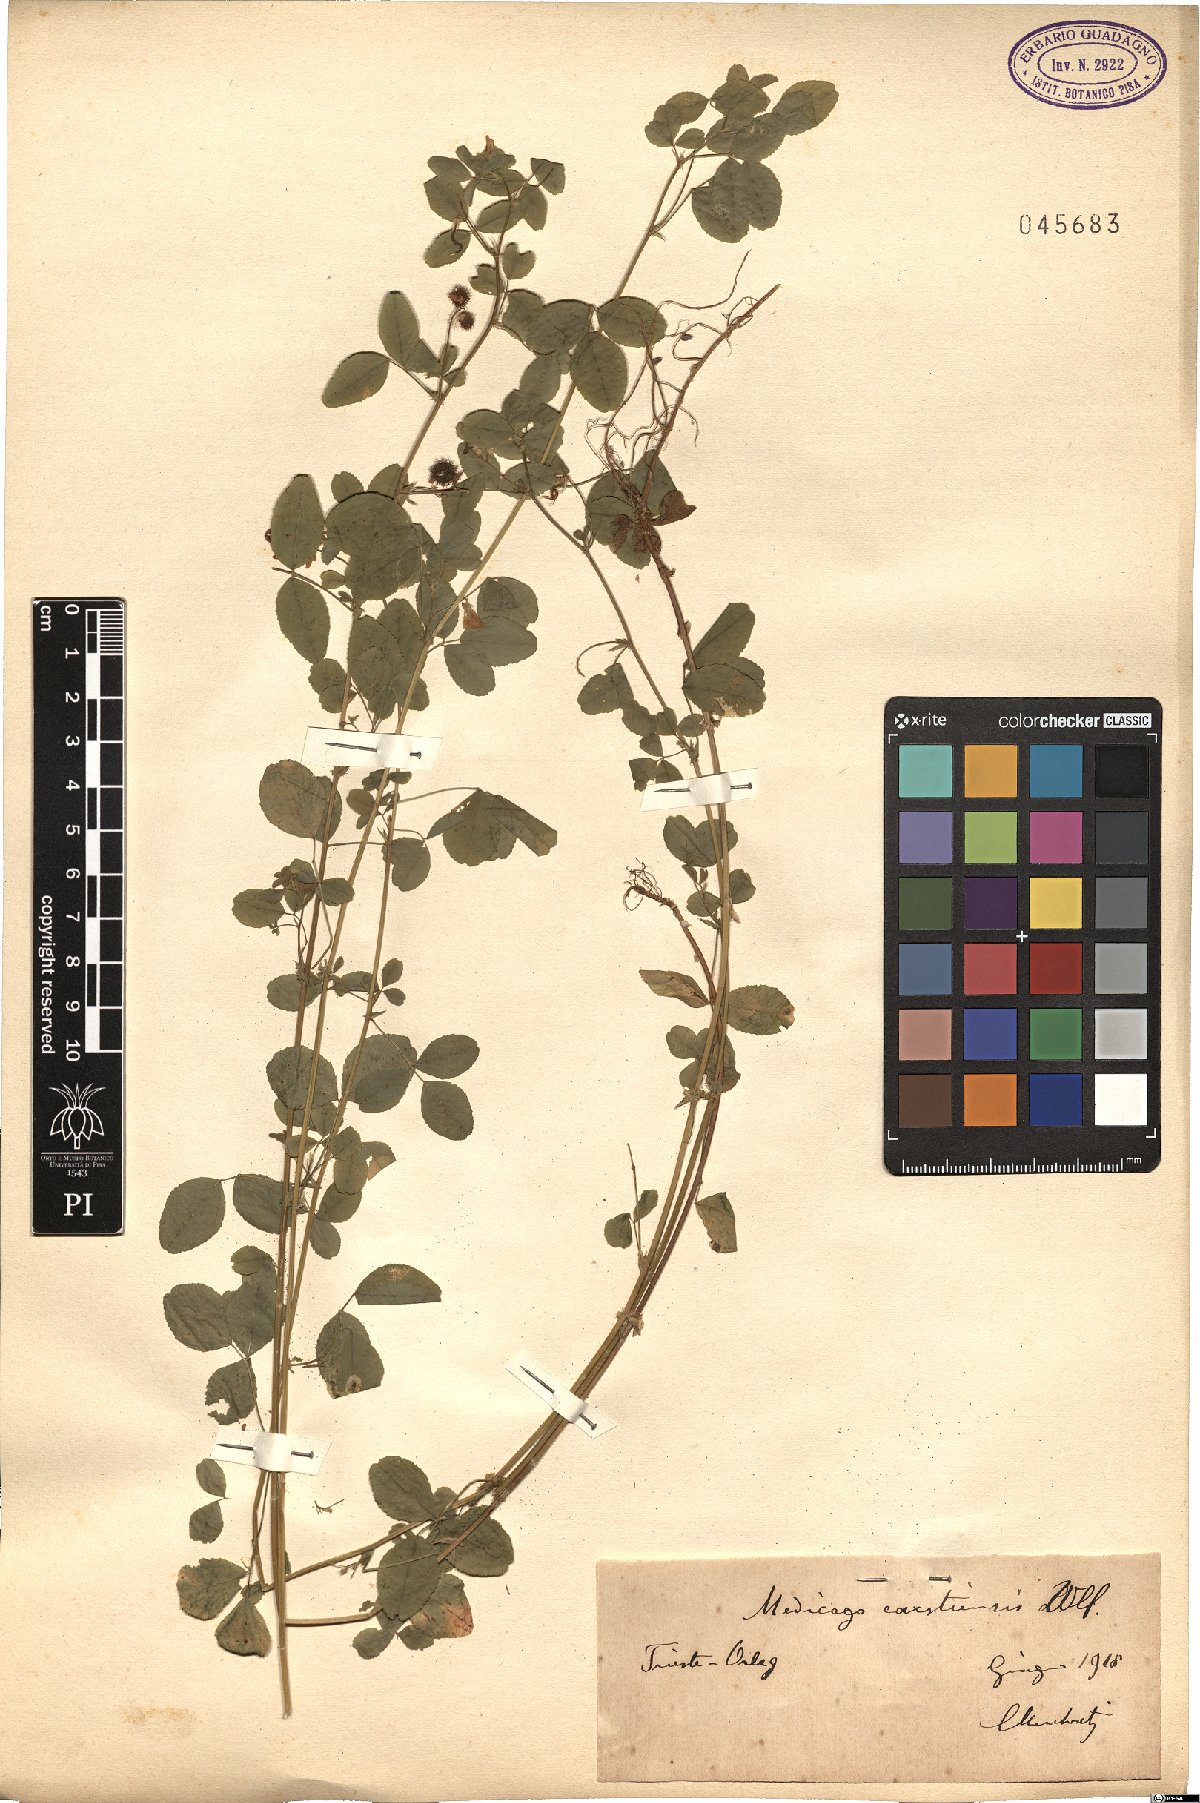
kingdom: Plantae
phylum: Tracheophyta
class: Magnoliopsida
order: Fabales
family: Fabaceae
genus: Medicago
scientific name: Medicago carstiensis
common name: Creeping-rooted medic
